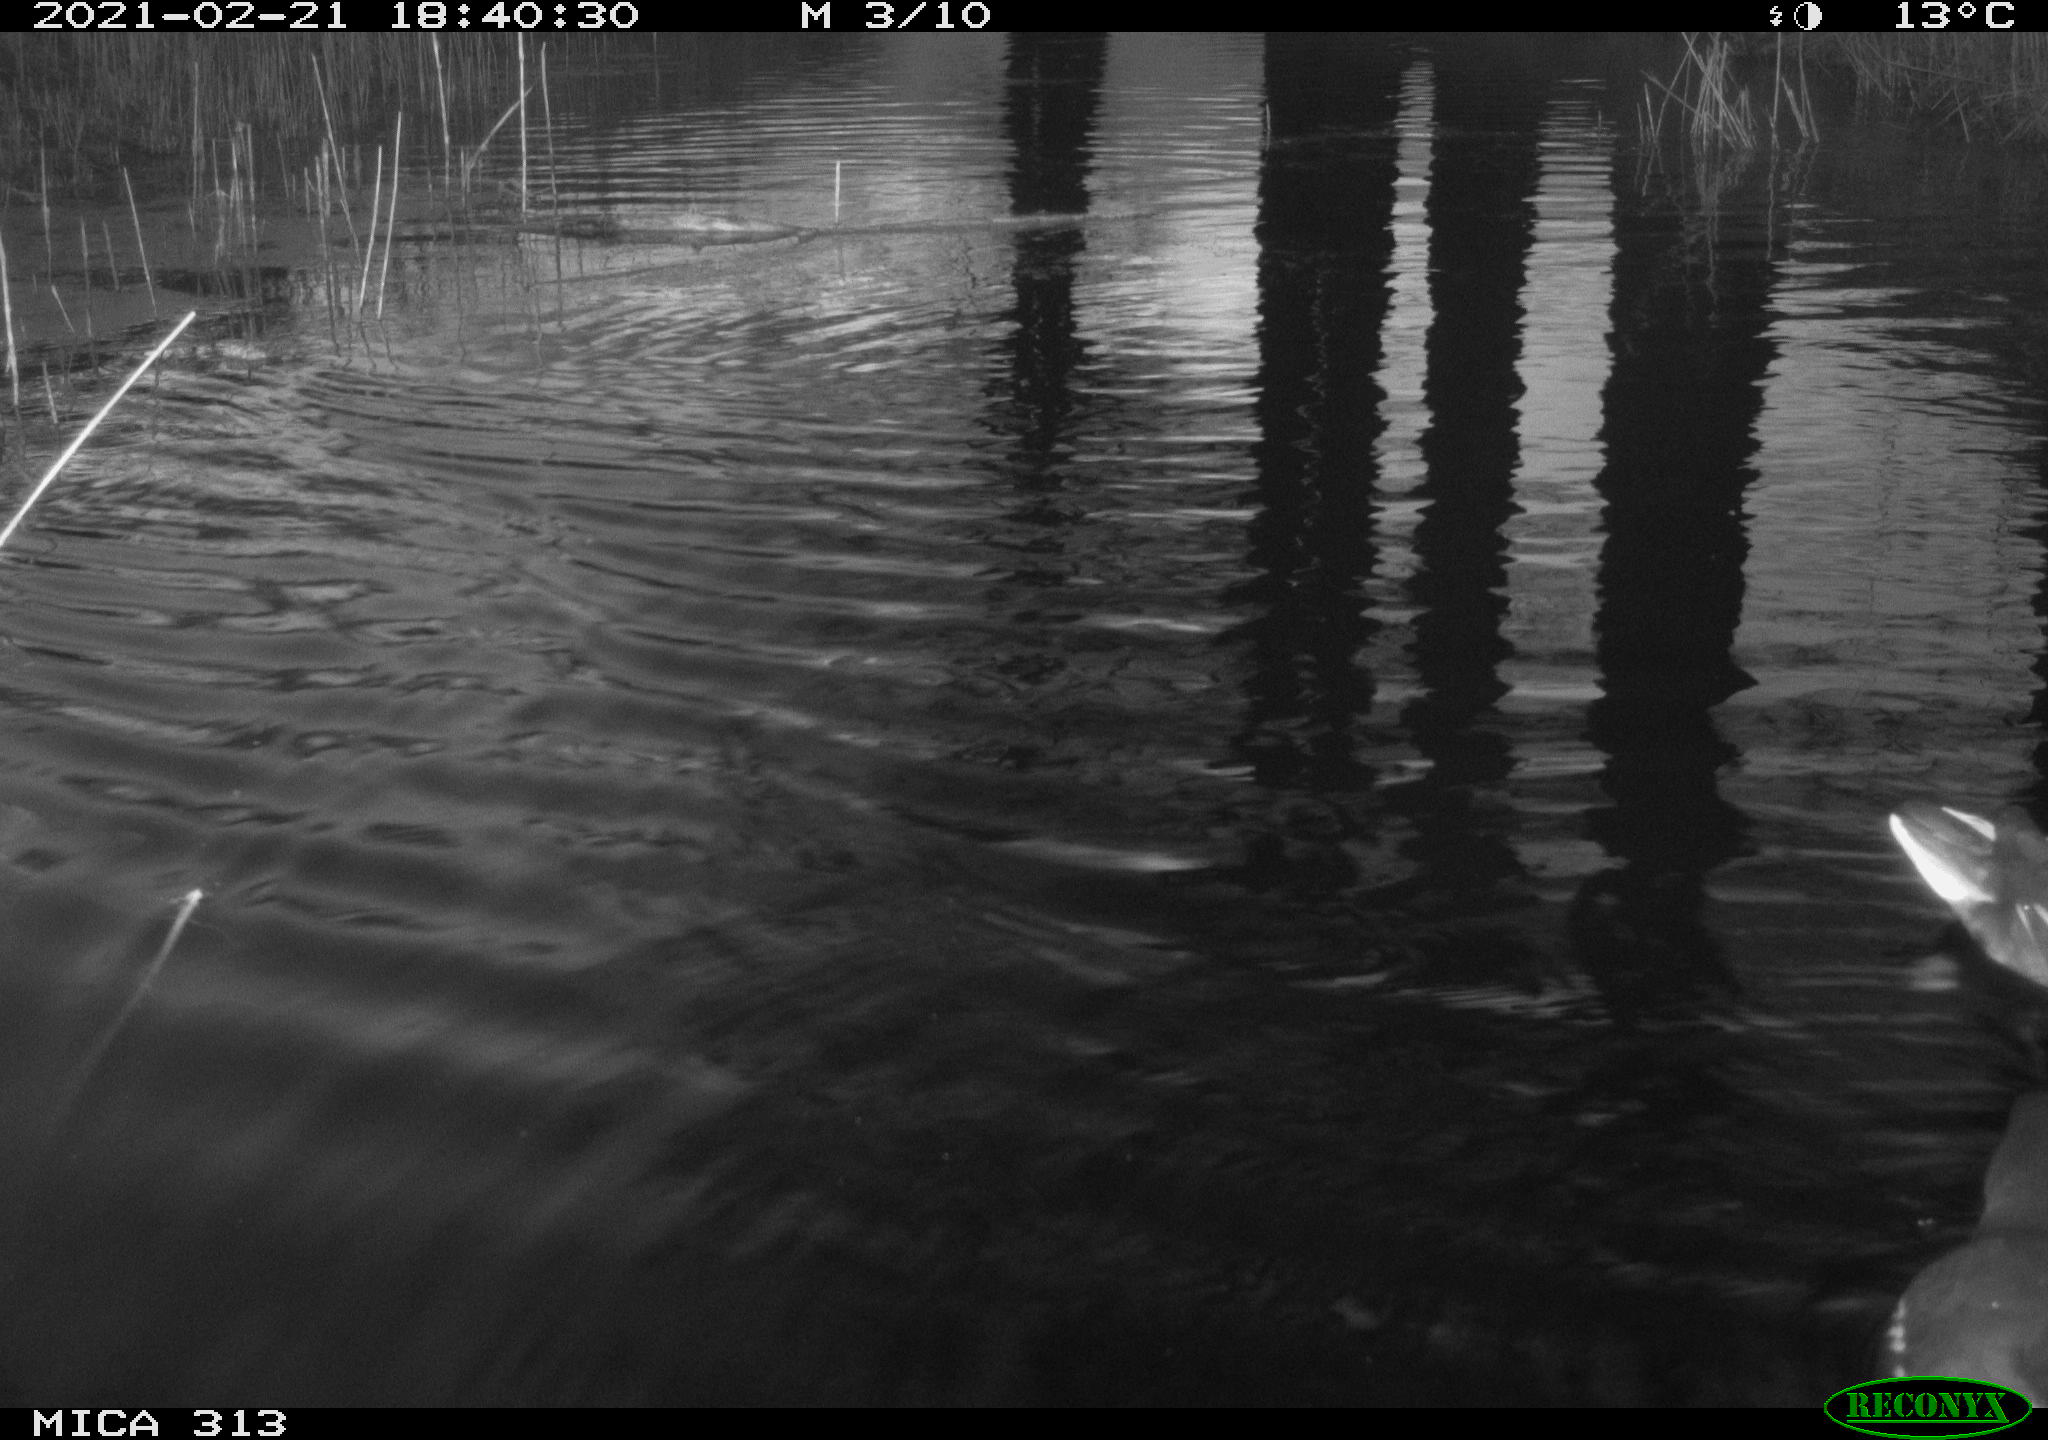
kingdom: Animalia
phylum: Chordata
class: Aves
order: Anseriformes
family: Anatidae
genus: Anas
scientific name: Anas
